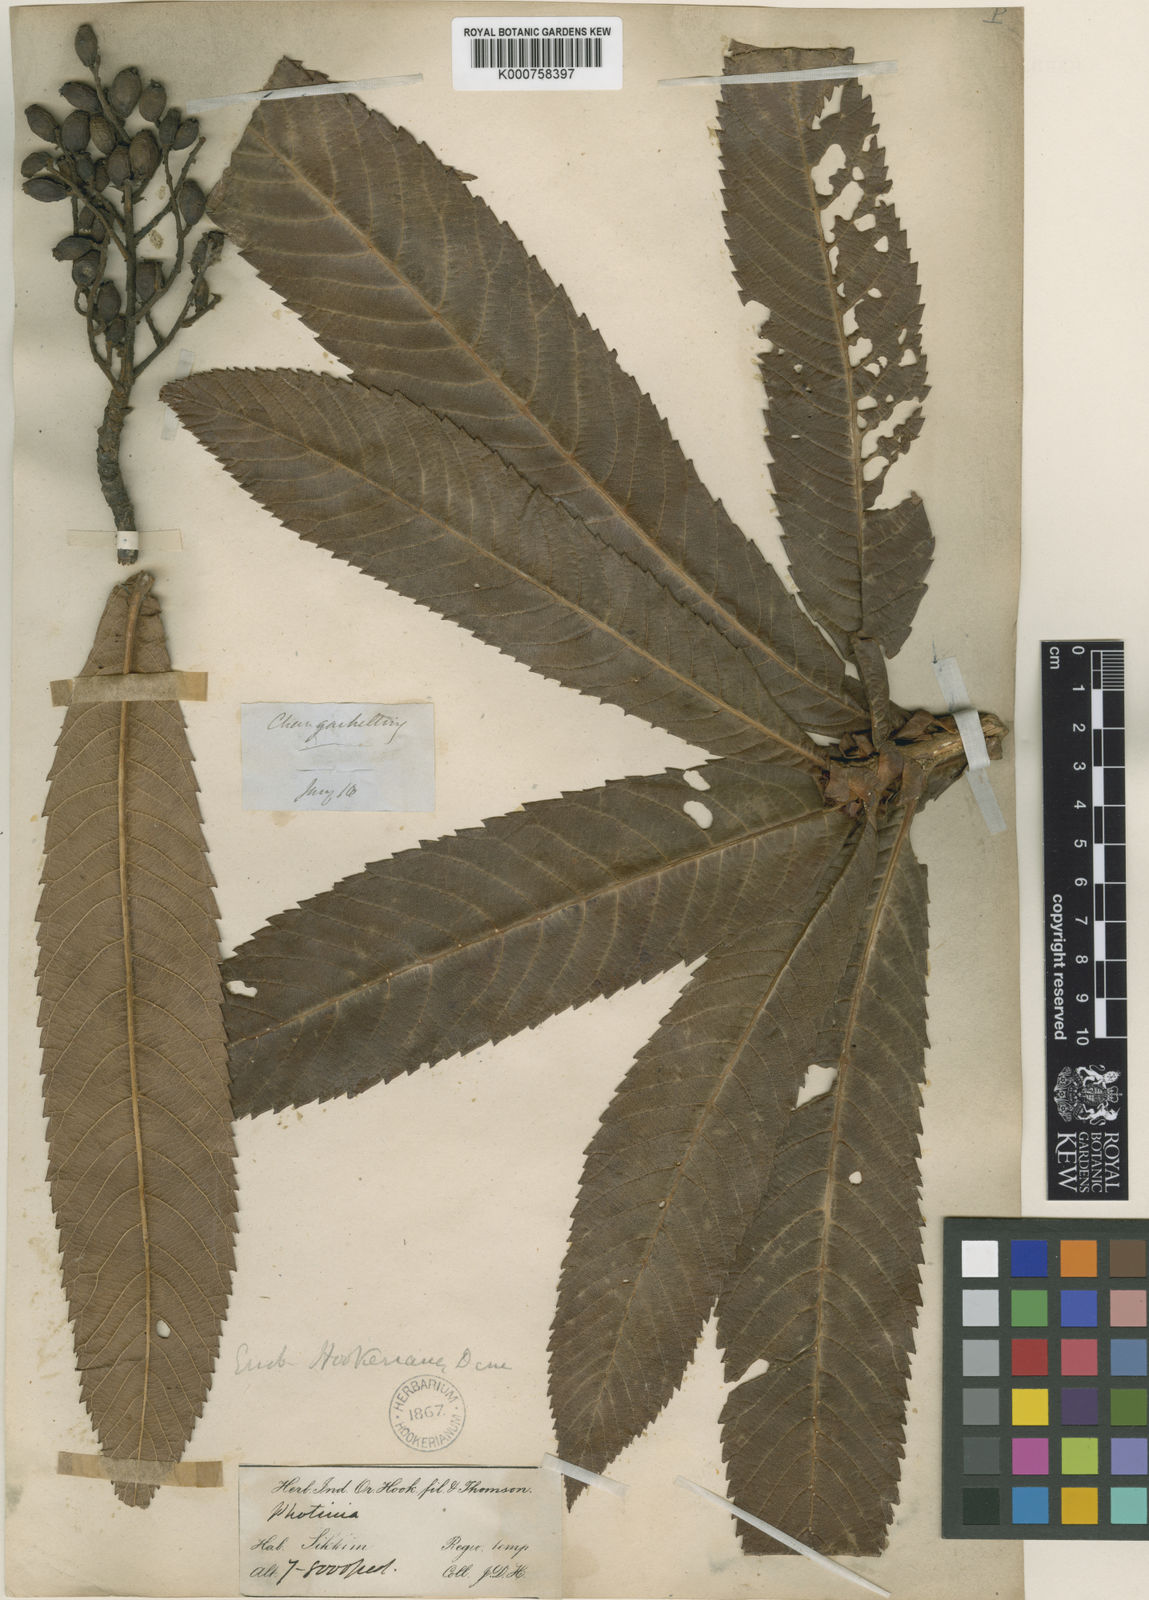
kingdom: Plantae
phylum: Tracheophyta
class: Magnoliopsida
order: Rosales
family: Rosaceae
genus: Rhaphiolepis
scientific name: Rhaphiolepis hookeriana
